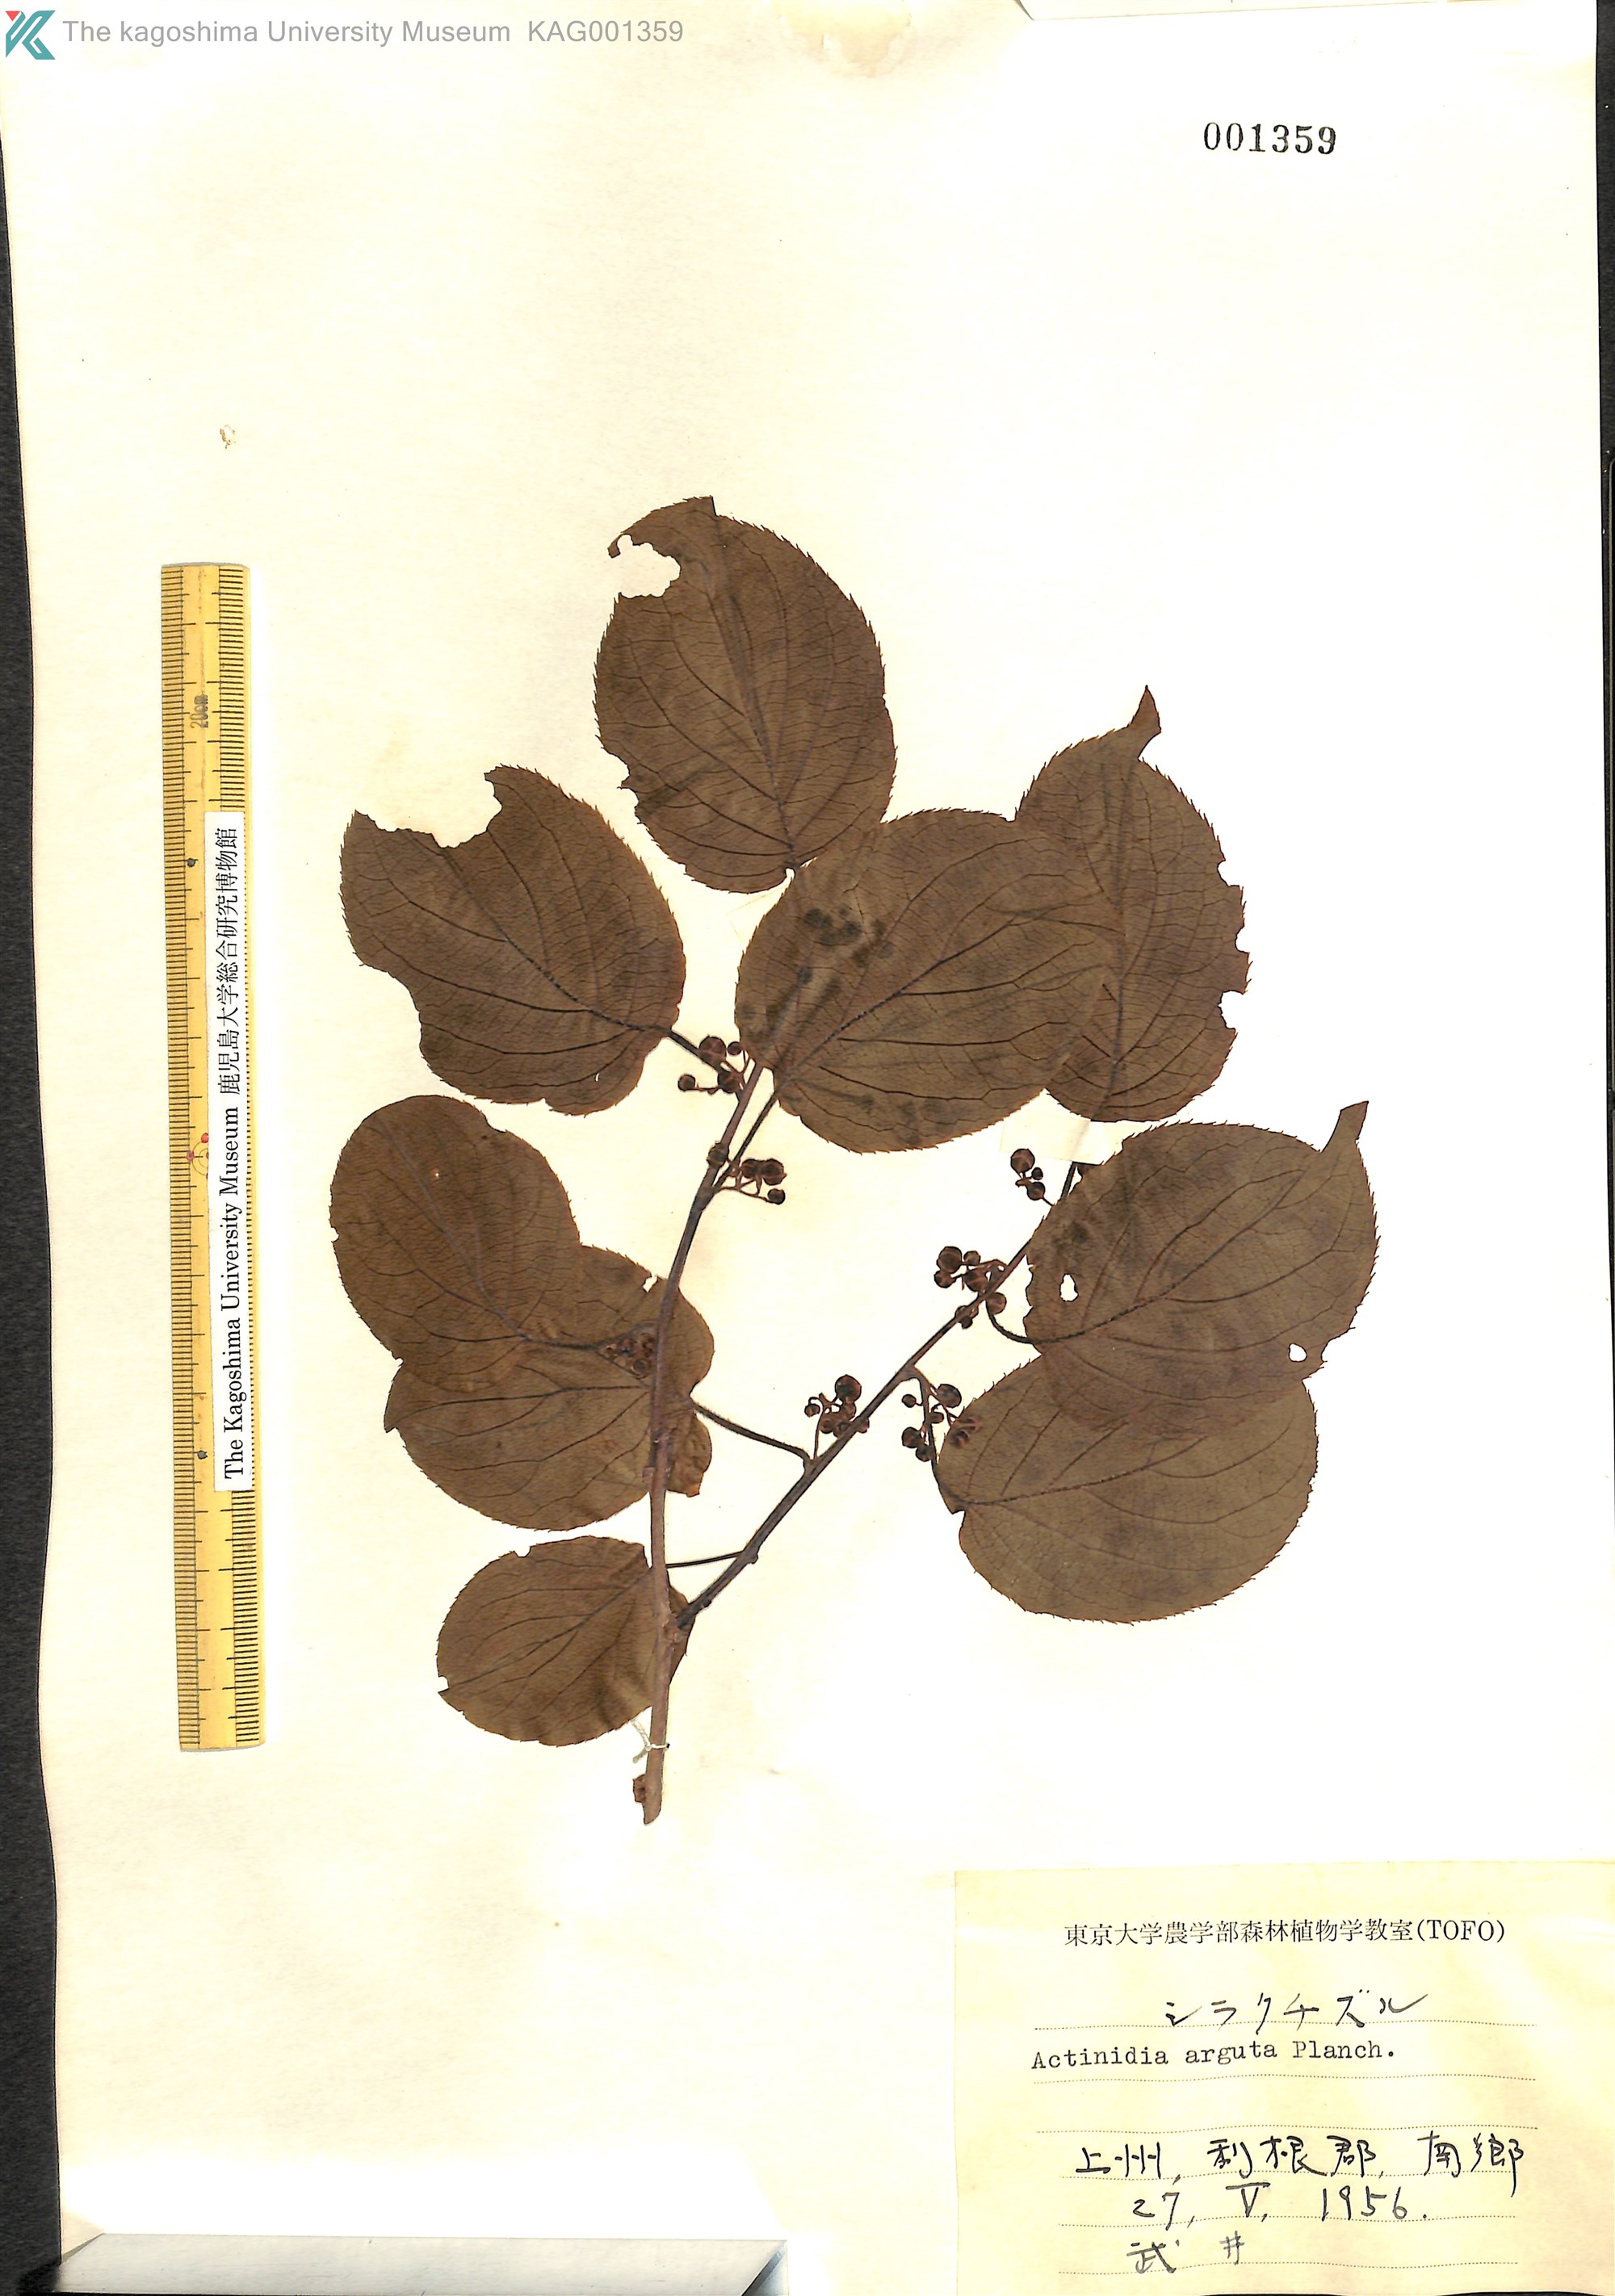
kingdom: Plantae
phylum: Tracheophyta
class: Magnoliopsida
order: Ericales
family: Actinidiaceae
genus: Actinidia
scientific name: Actinidia arguta
